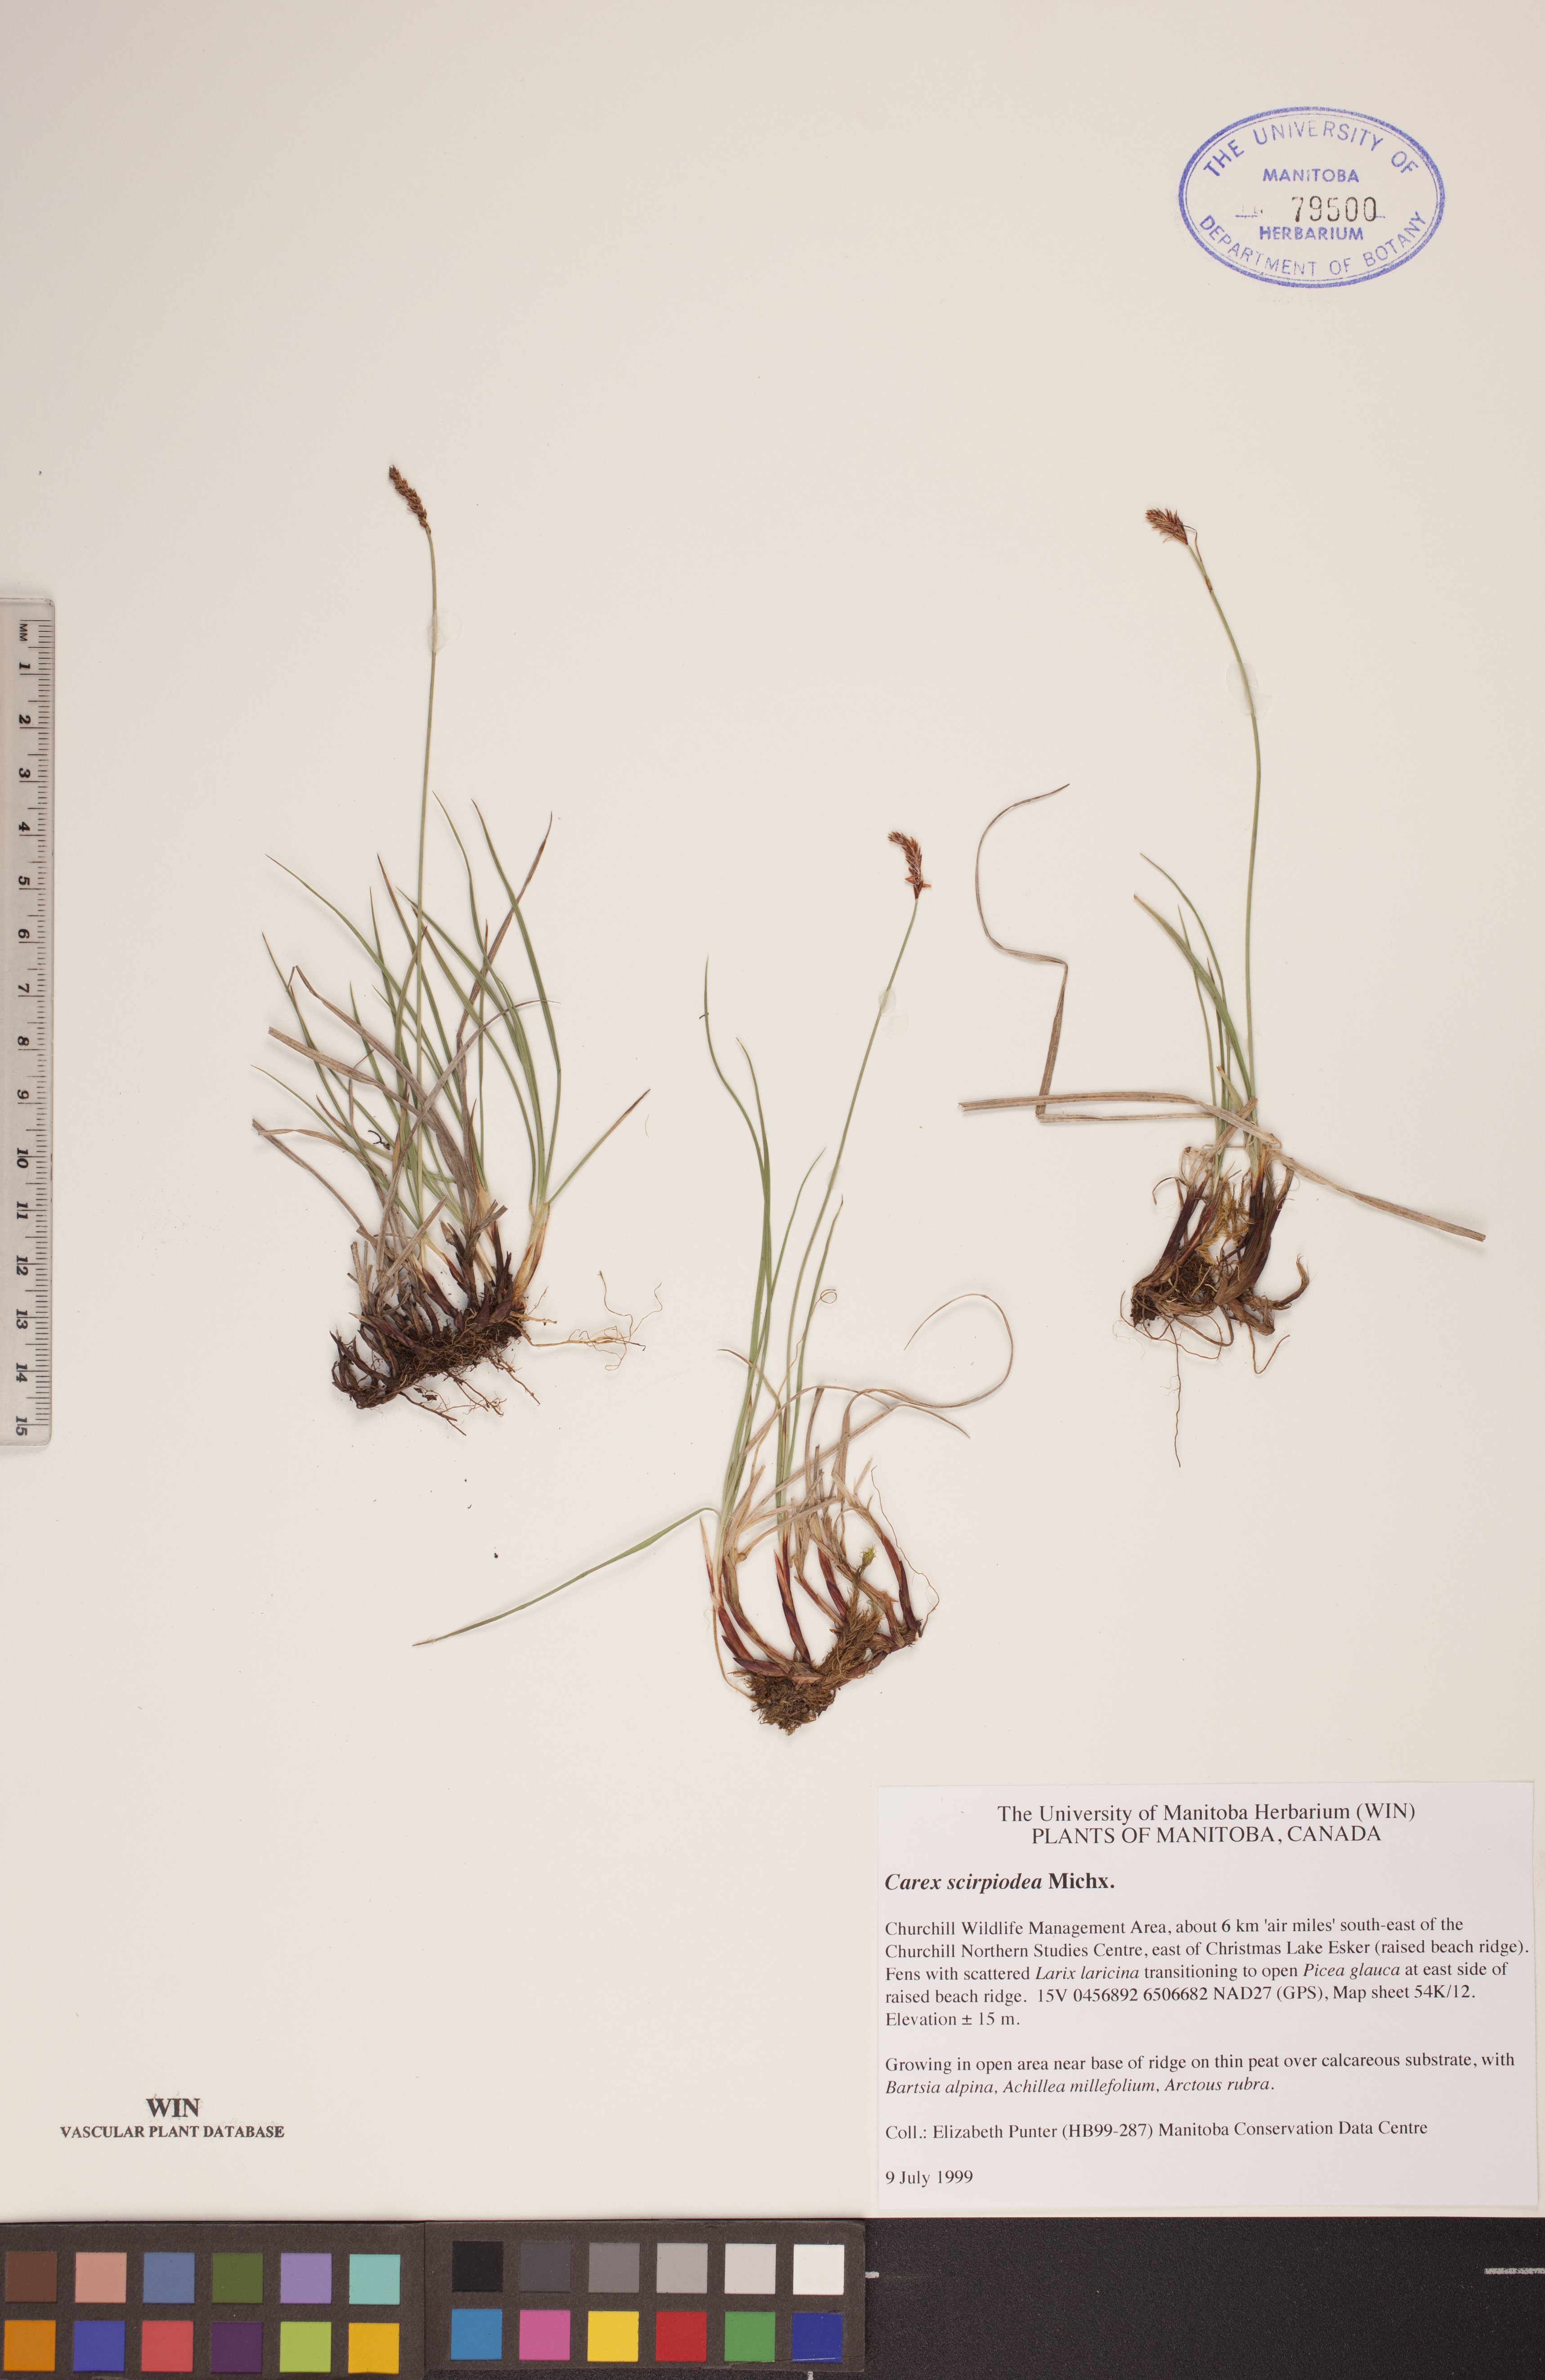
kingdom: Plantae
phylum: Tracheophyta
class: Liliopsida
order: Poales
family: Cyperaceae
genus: Carex
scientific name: Carex scirpoidea
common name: Canada single-spike sedge
